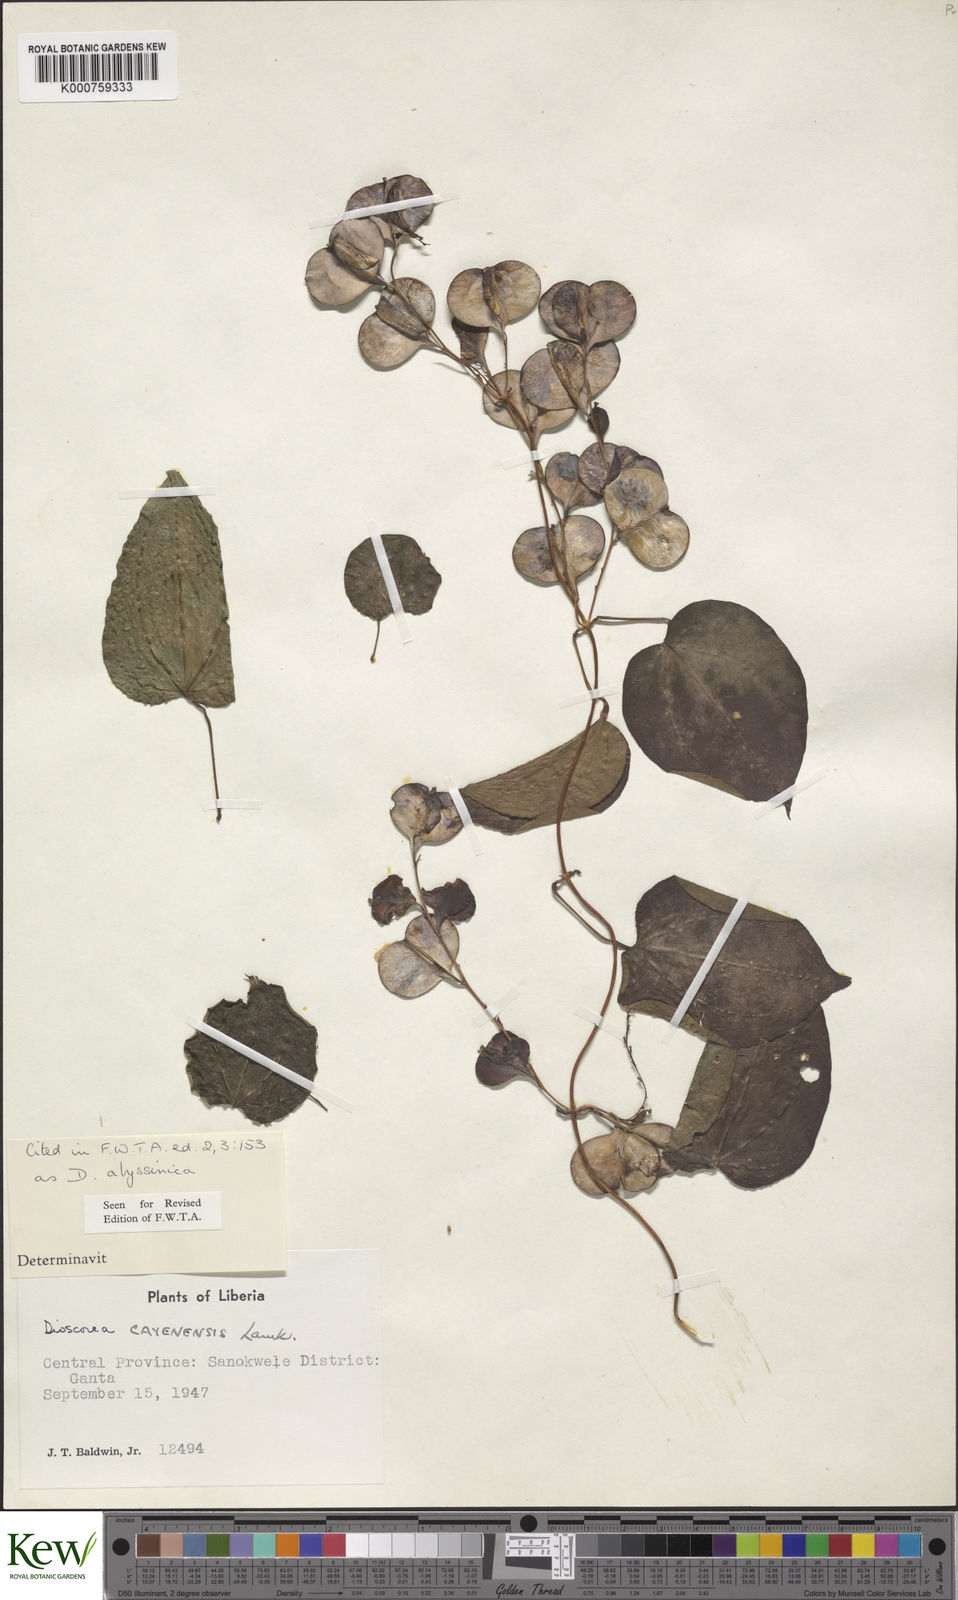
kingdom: Plantae
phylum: Tracheophyta
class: Liliopsida
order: Dioscoreales
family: Dioscoreaceae
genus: Dioscorea
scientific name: Dioscorea cayenensis
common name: Attoto yam
